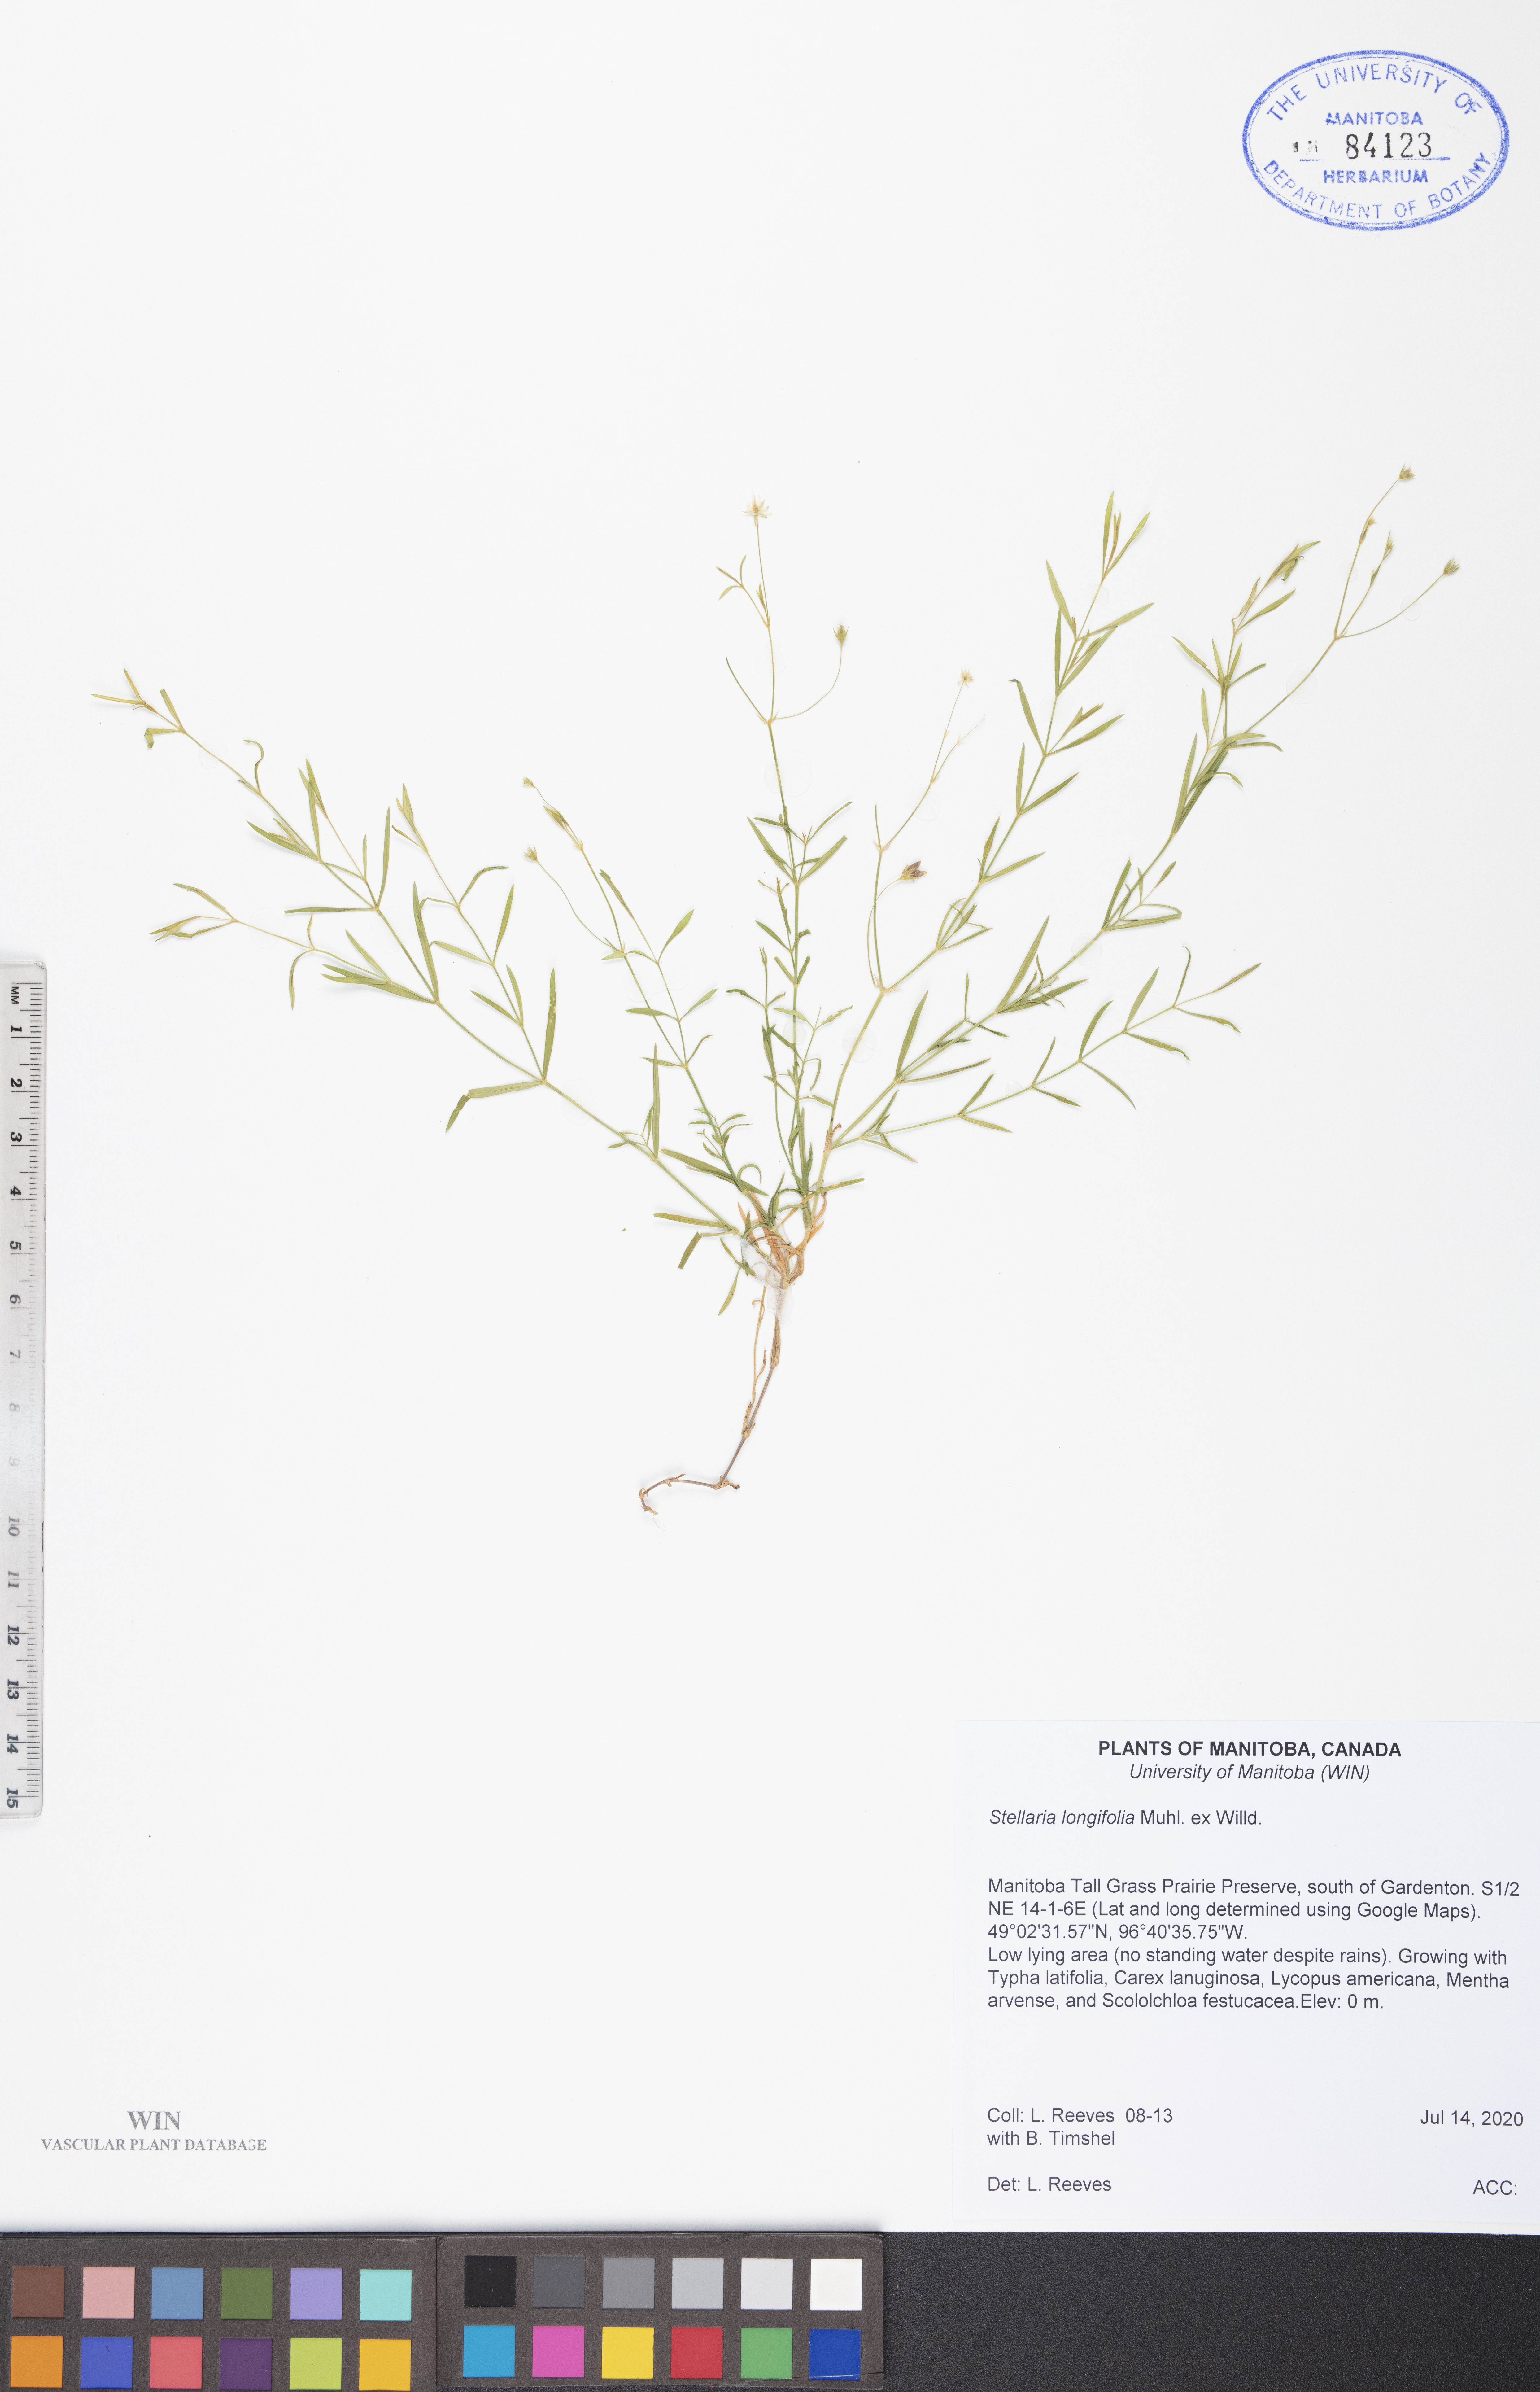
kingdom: Plantae
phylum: Tracheophyta
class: Magnoliopsida
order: Caryophyllales
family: Caryophyllaceae
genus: Stellaria
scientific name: Stellaria longifolia
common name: Long-leaved chickweed
